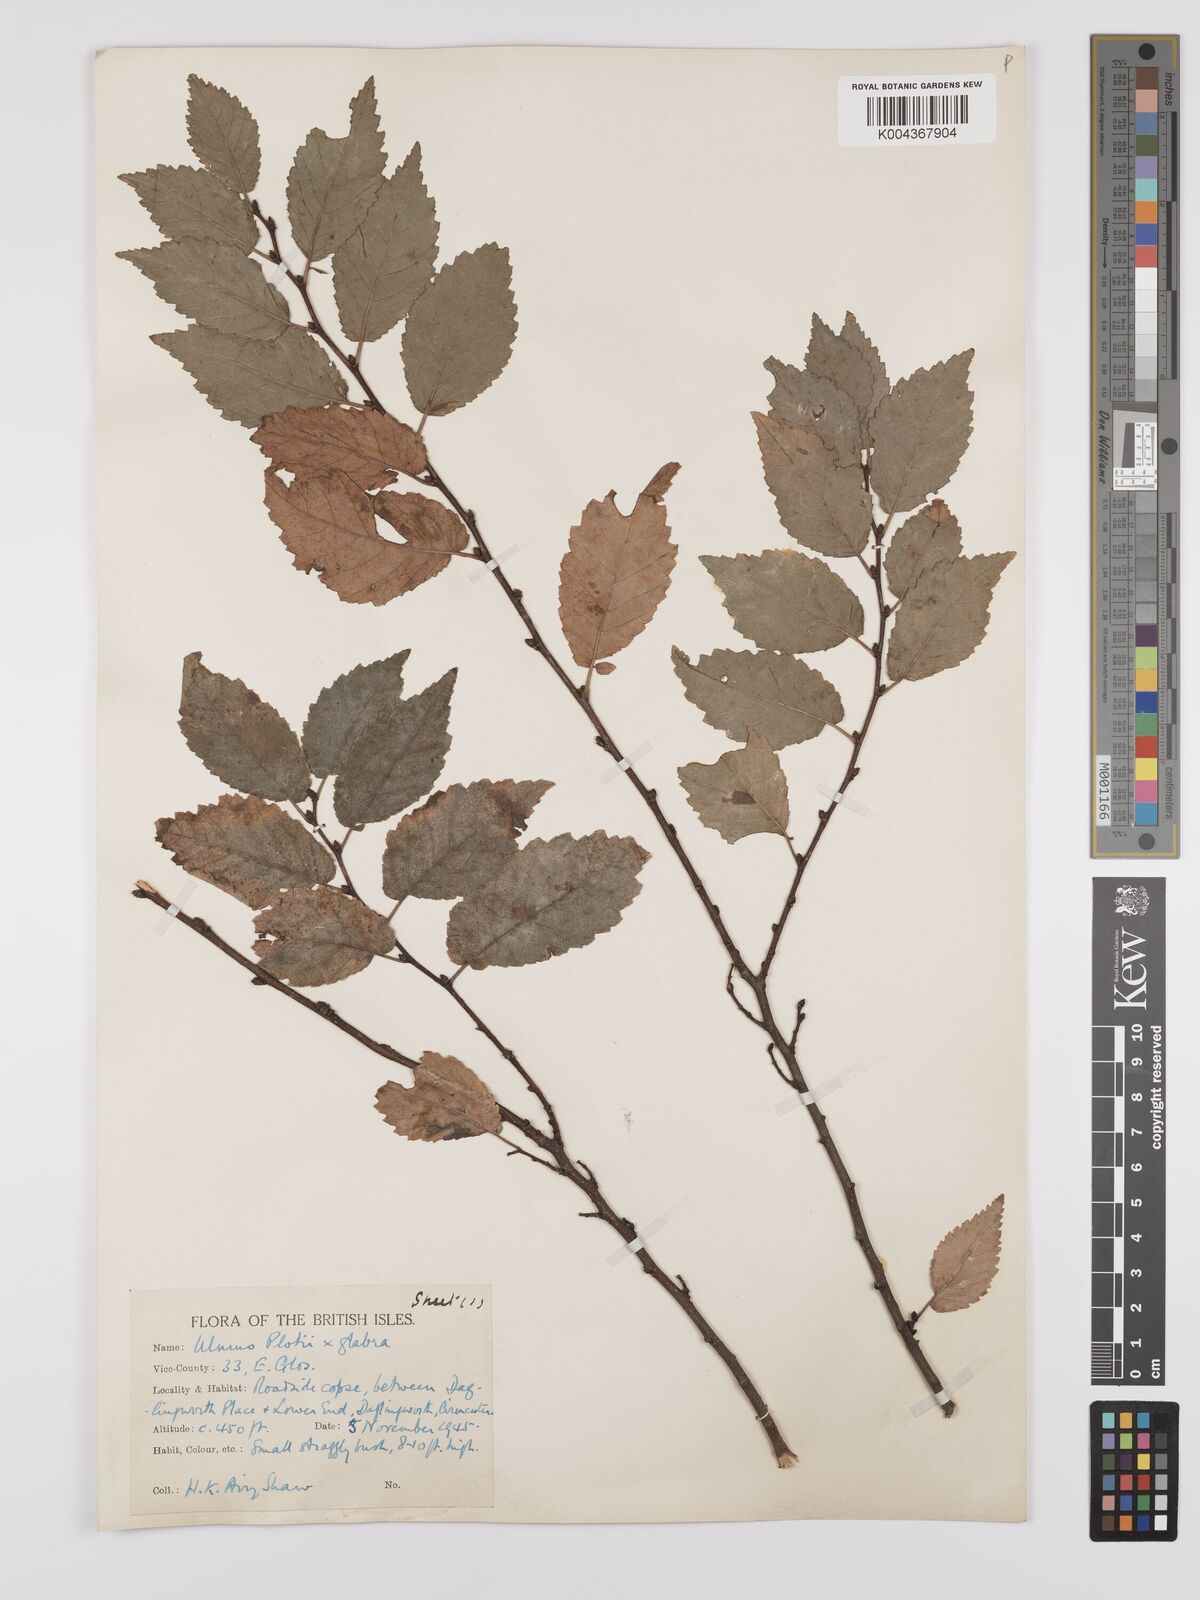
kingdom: Plantae
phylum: Tracheophyta
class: Magnoliopsida
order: Rosales
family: Ulmaceae
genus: Ulmus
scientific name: Ulmus glabra
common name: Wych elm
